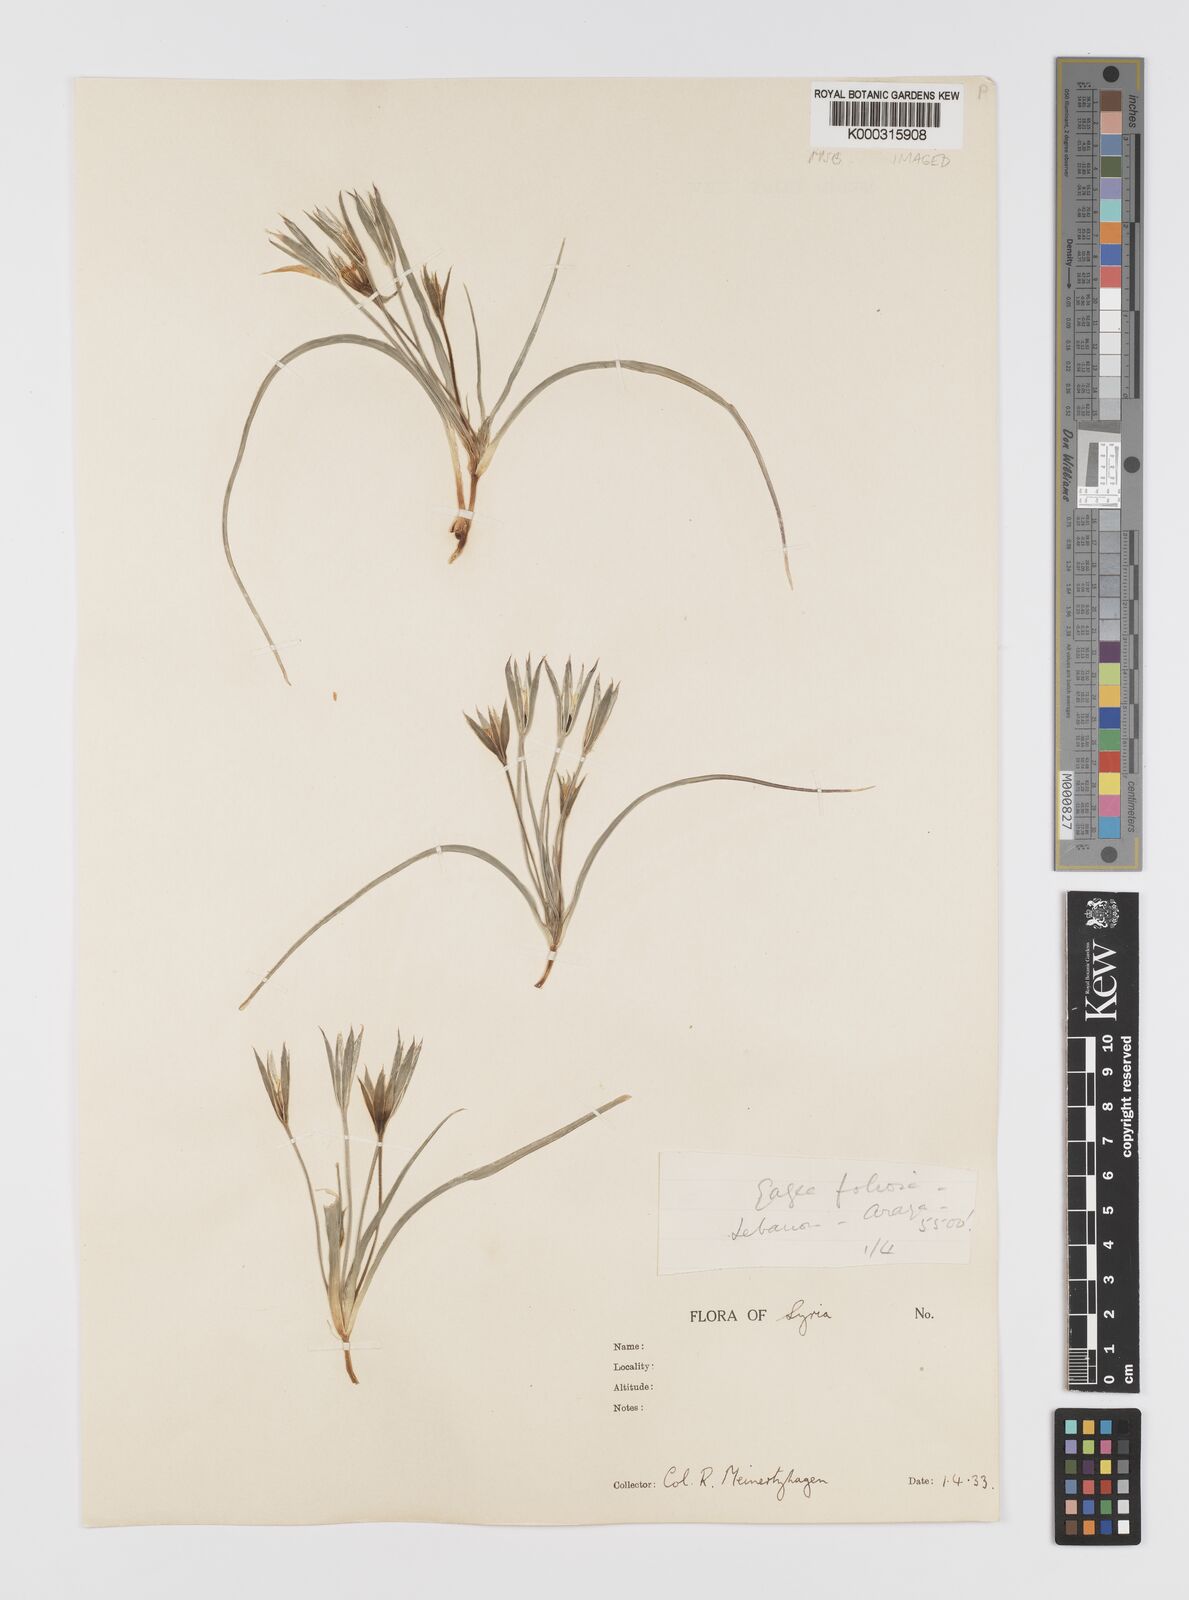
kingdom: Plantae
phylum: Tracheophyta
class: Liliopsida
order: Liliales
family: Liliaceae
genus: Gagea
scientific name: Gagea dayana
